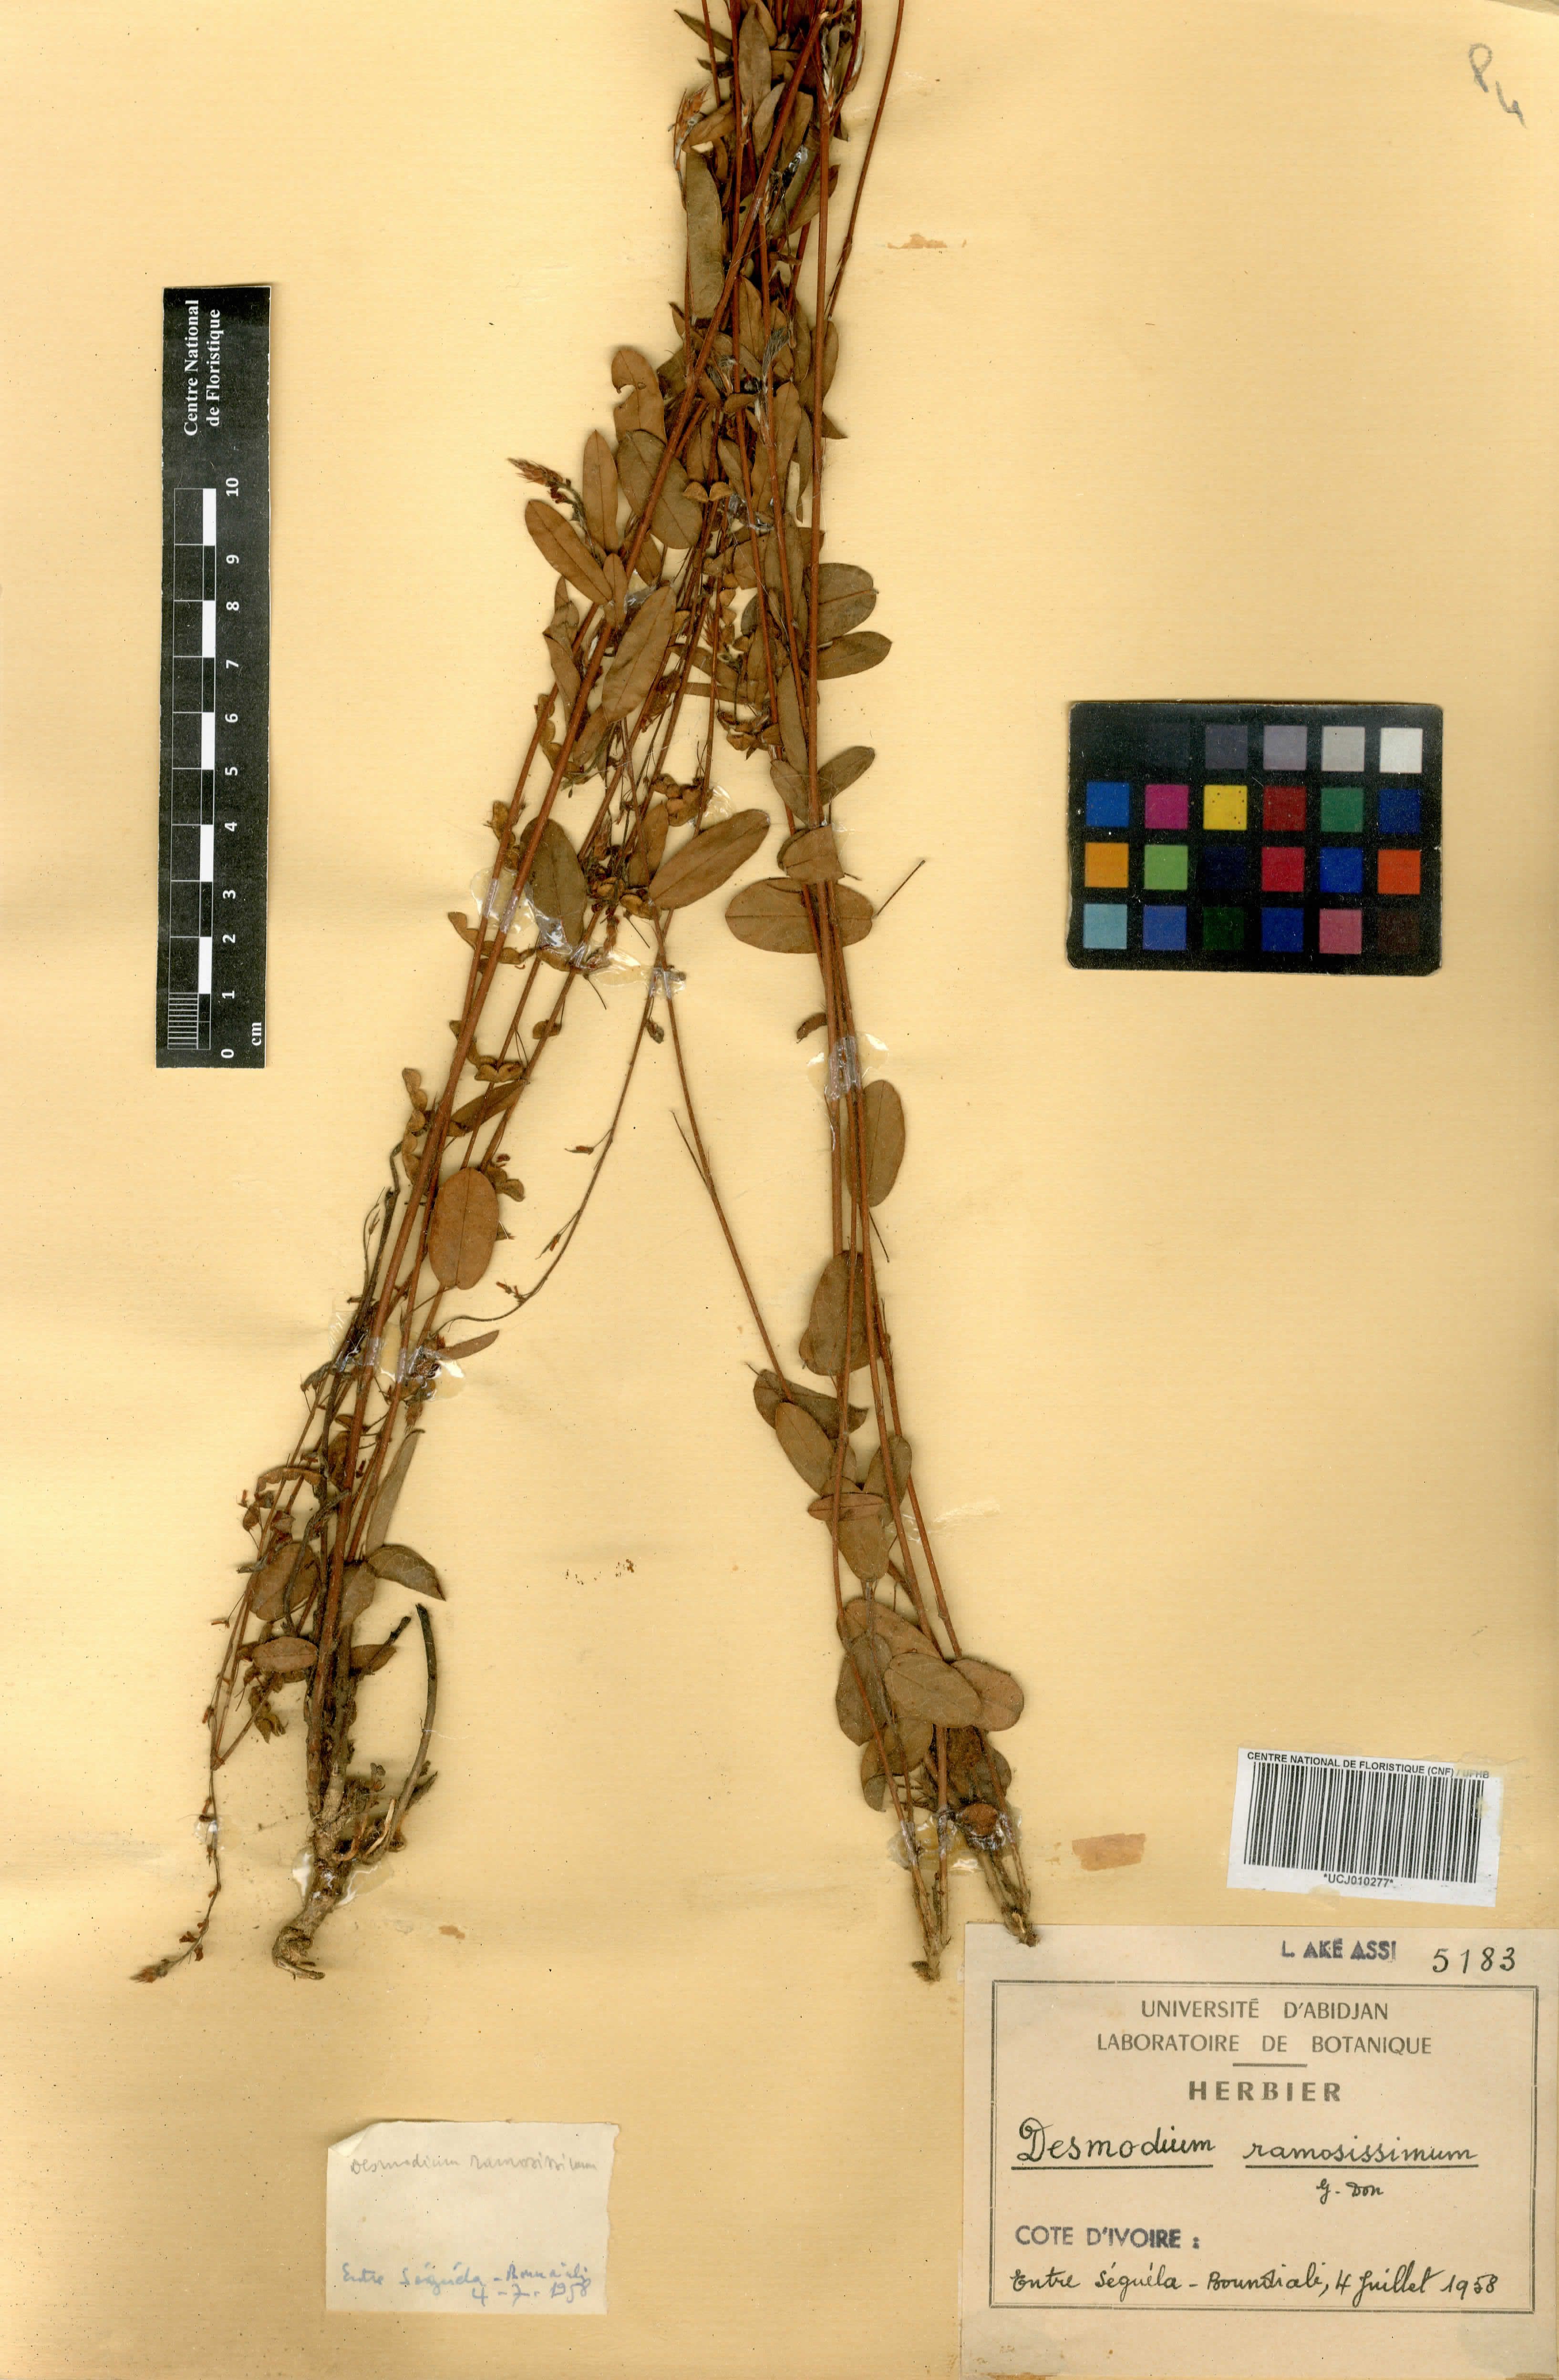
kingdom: Plantae
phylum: Tracheophyta
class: Magnoliopsida
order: Fabales
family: Fabaceae
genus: Grona
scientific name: Grona ramosissima
